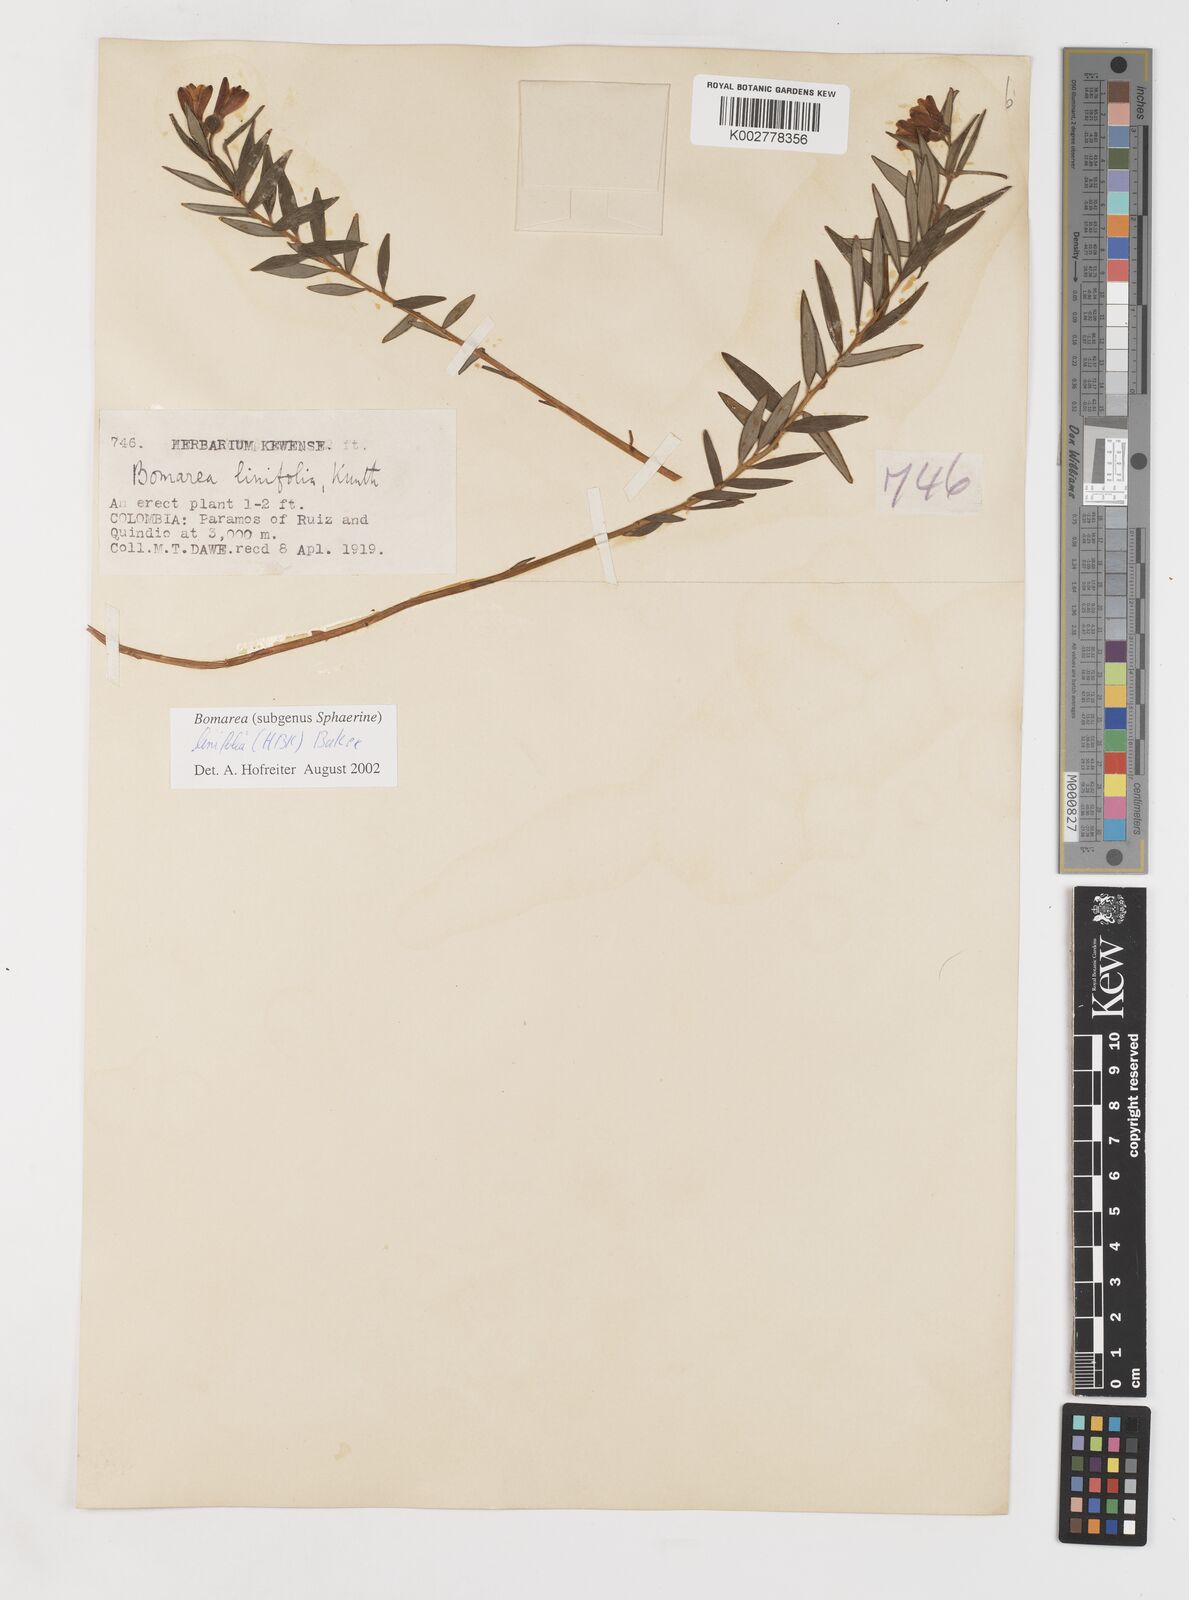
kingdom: Plantae
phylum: Tracheophyta
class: Liliopsida
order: Liliales
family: Alstroemeriaceae
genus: Bomarea
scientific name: Bomarea linifolia
